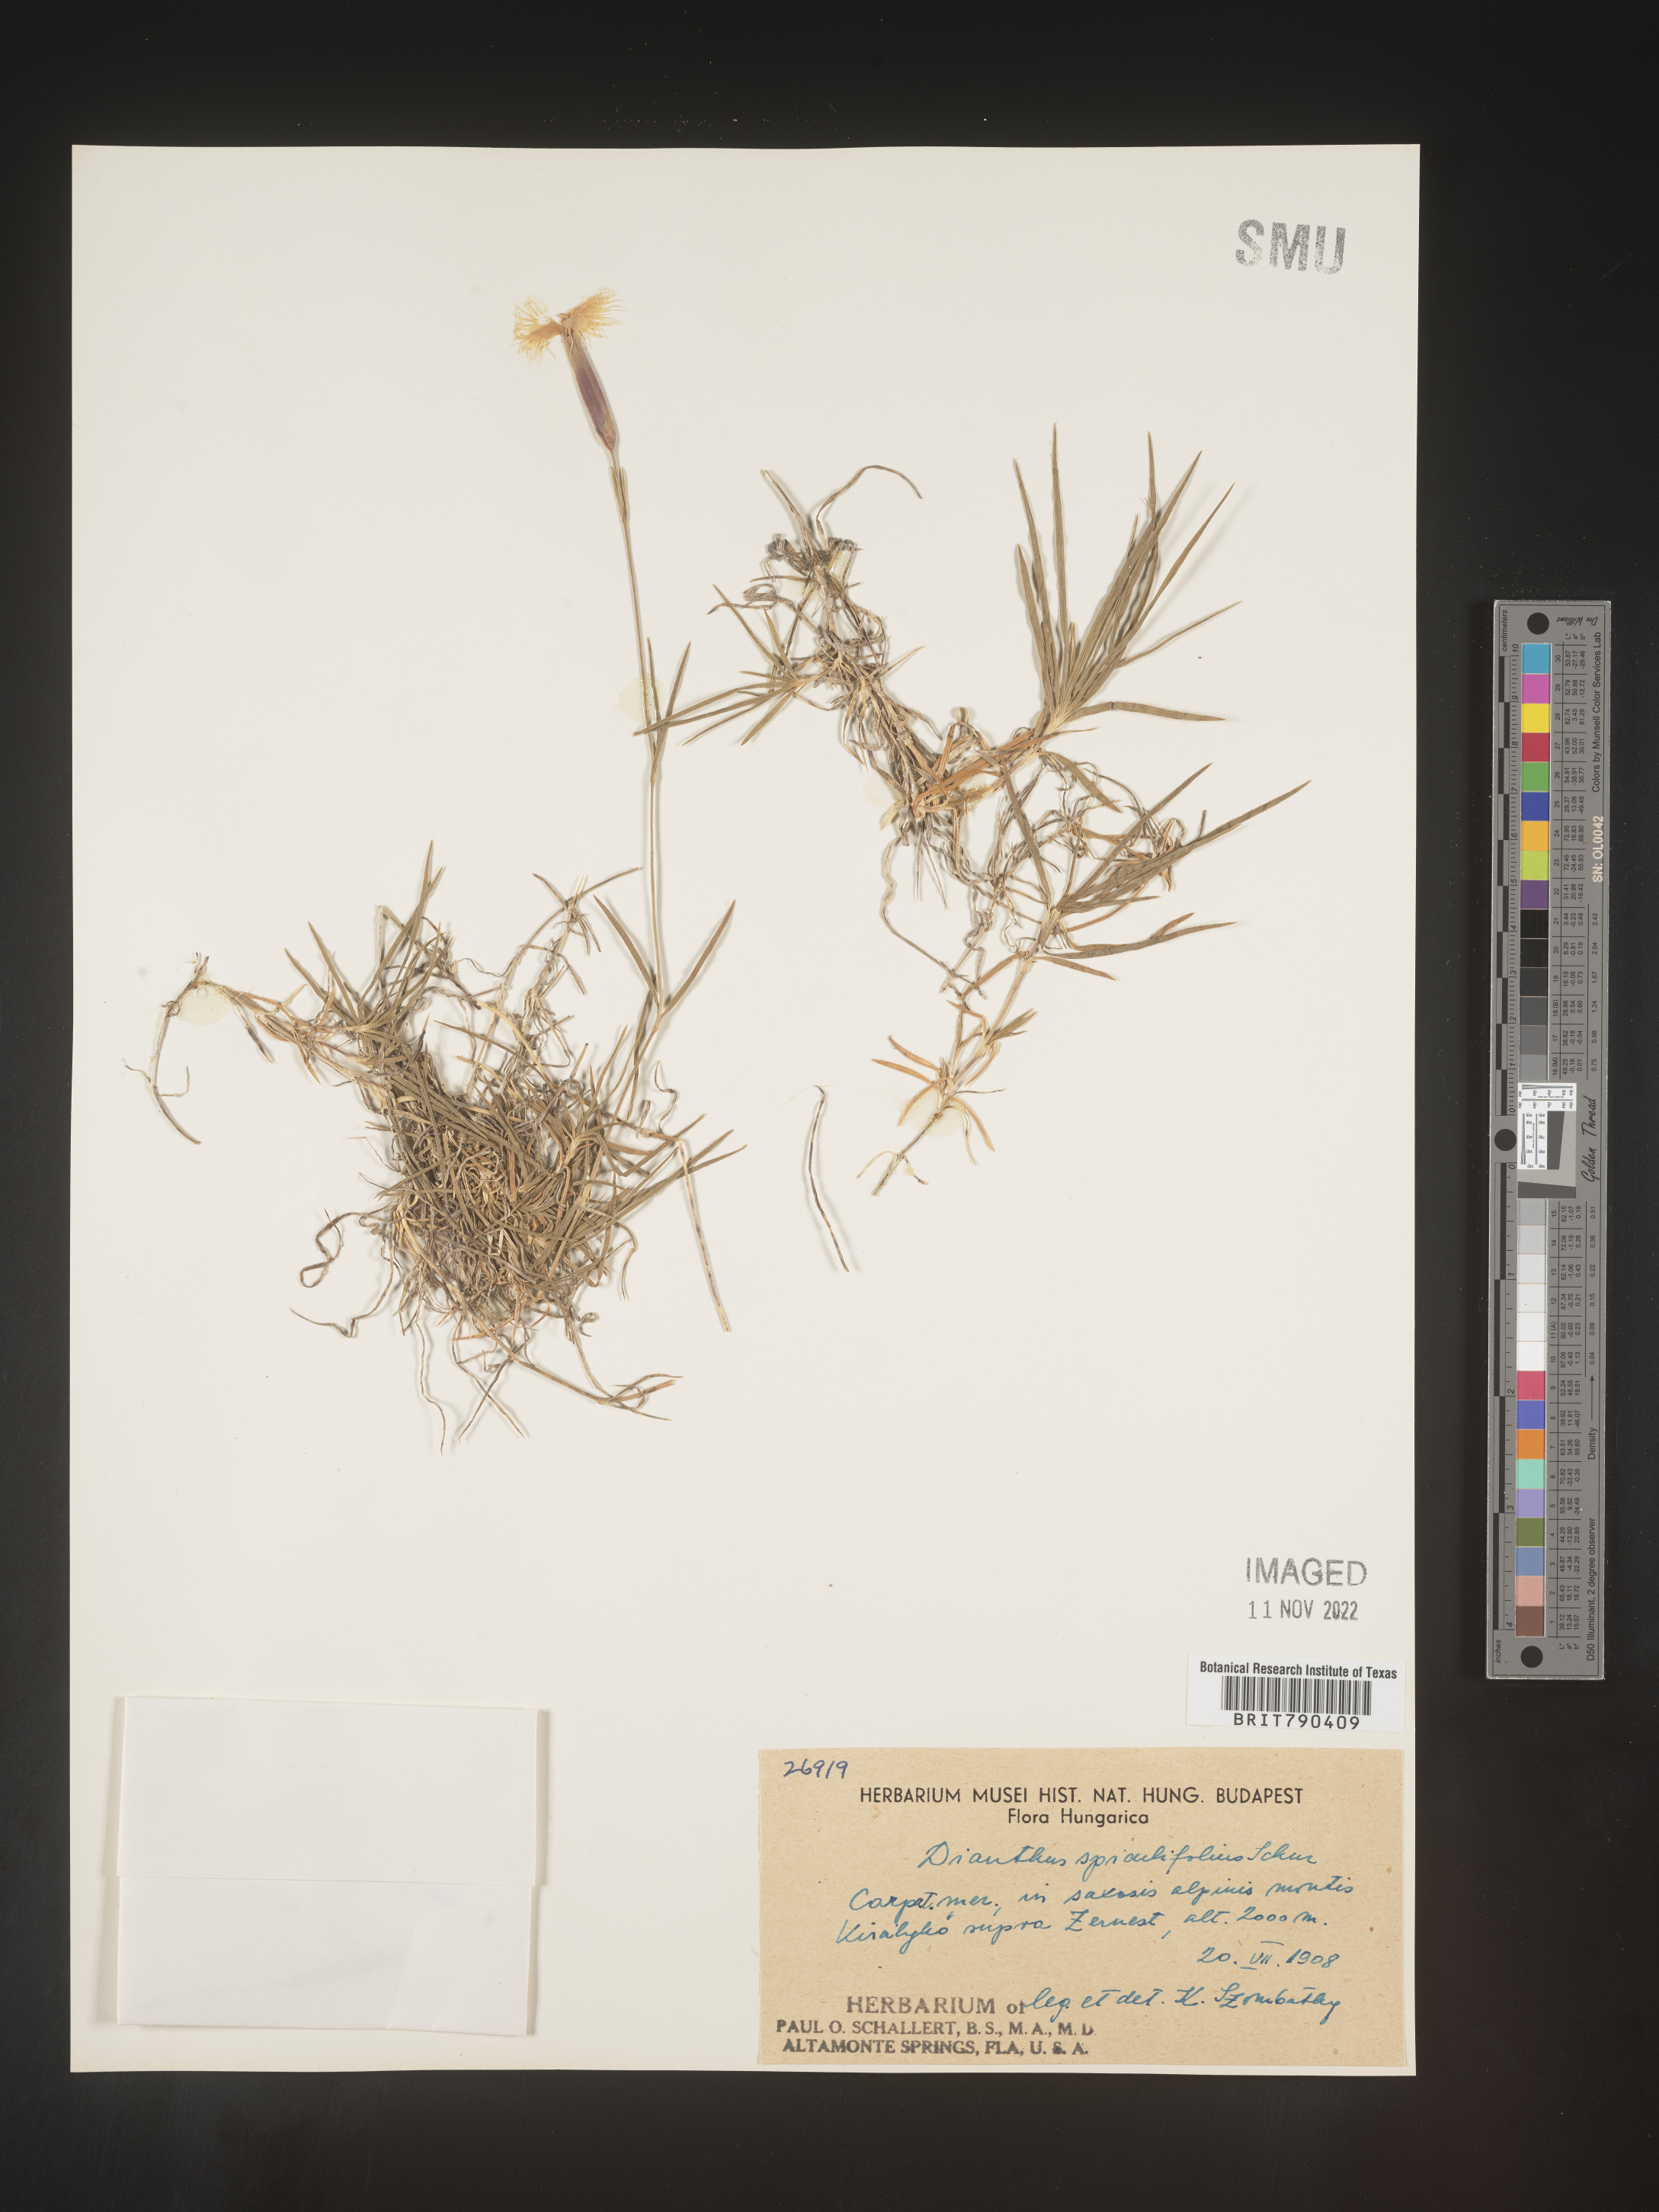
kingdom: Plantae
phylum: Tracheophyta
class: Magnoliopsida
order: Caryophyllales
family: Caryophyllaceae
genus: Dianthus
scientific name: Dianthus
